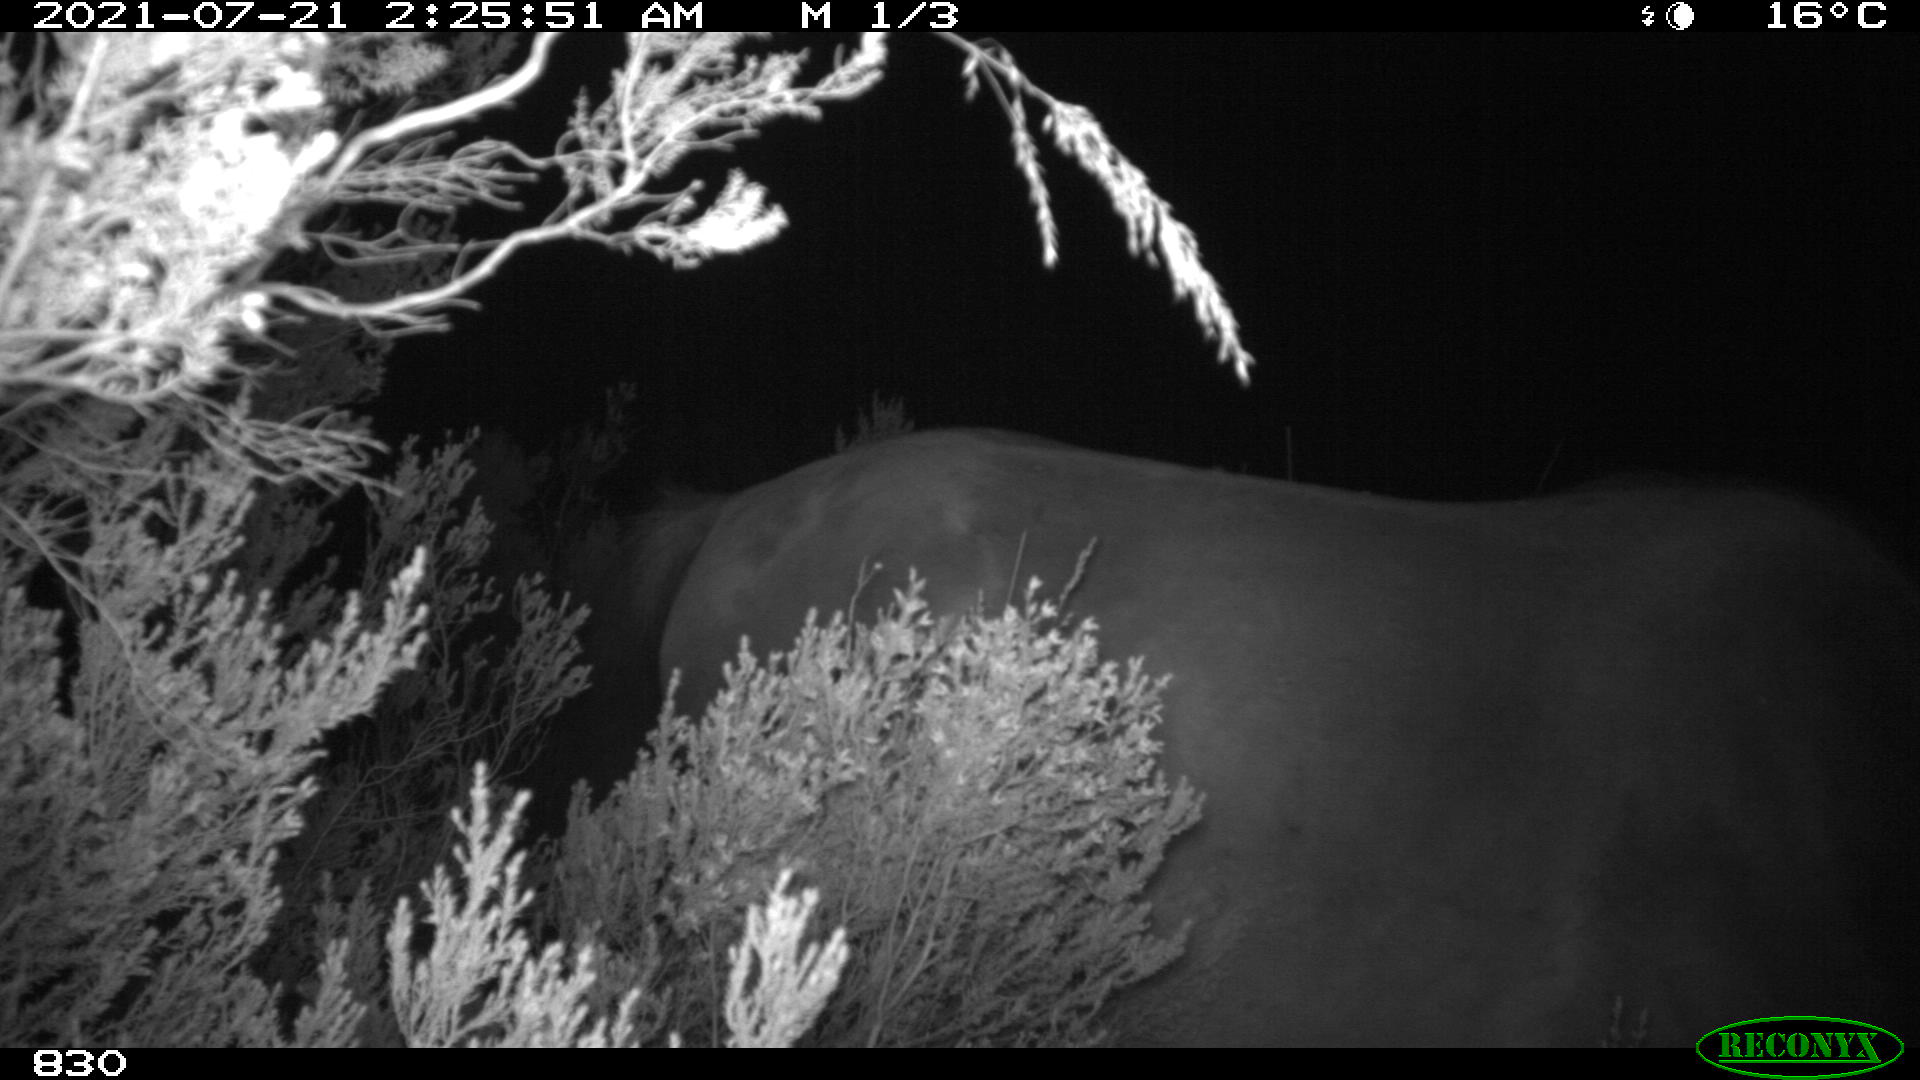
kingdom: Animalia
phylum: Chordata
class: Mammalia
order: Perissodactyla
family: Equidae
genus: Equus
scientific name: Equus caballus
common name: Horse
